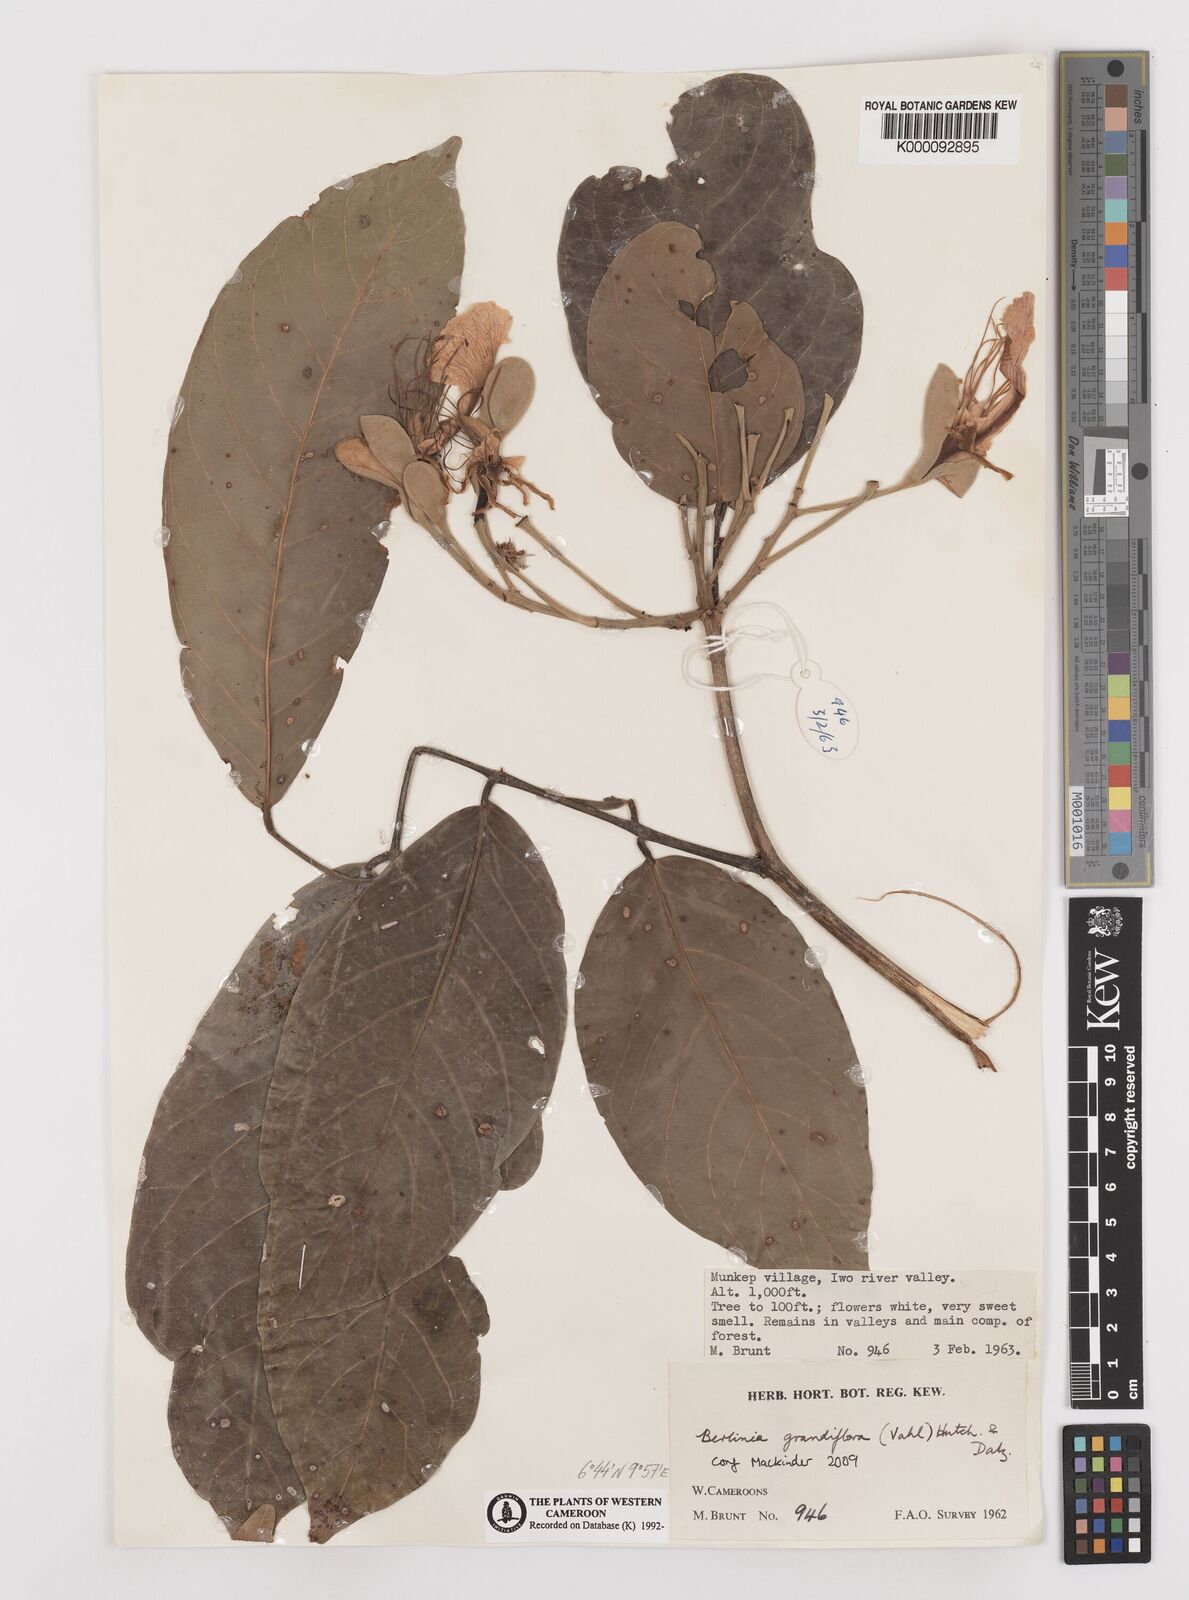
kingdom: Plantae
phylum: Tracheophyta
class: Magnoliopsida
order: Fabales
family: Fabaceae
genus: Berlinia
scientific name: Berlinia grandiflora
